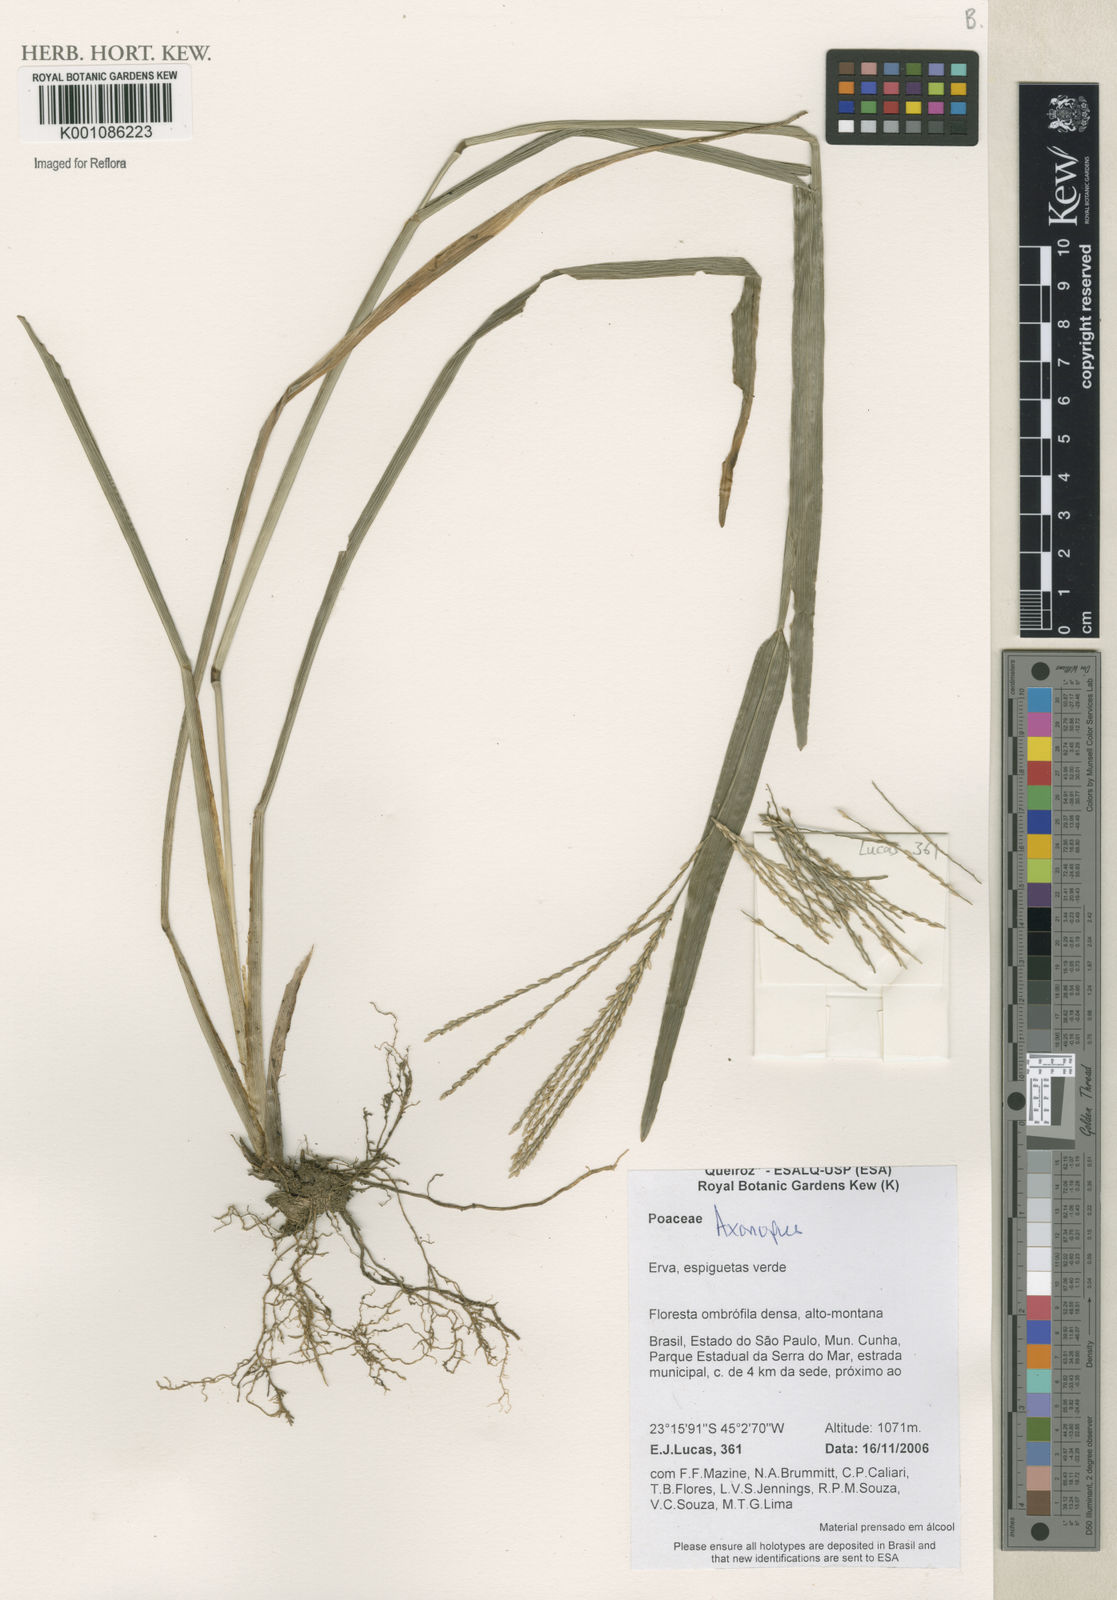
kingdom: Plantae
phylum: Tracheophyta
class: Liliopsida
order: Poales
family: Poaceae
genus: Axonopus
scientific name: Axonopus
